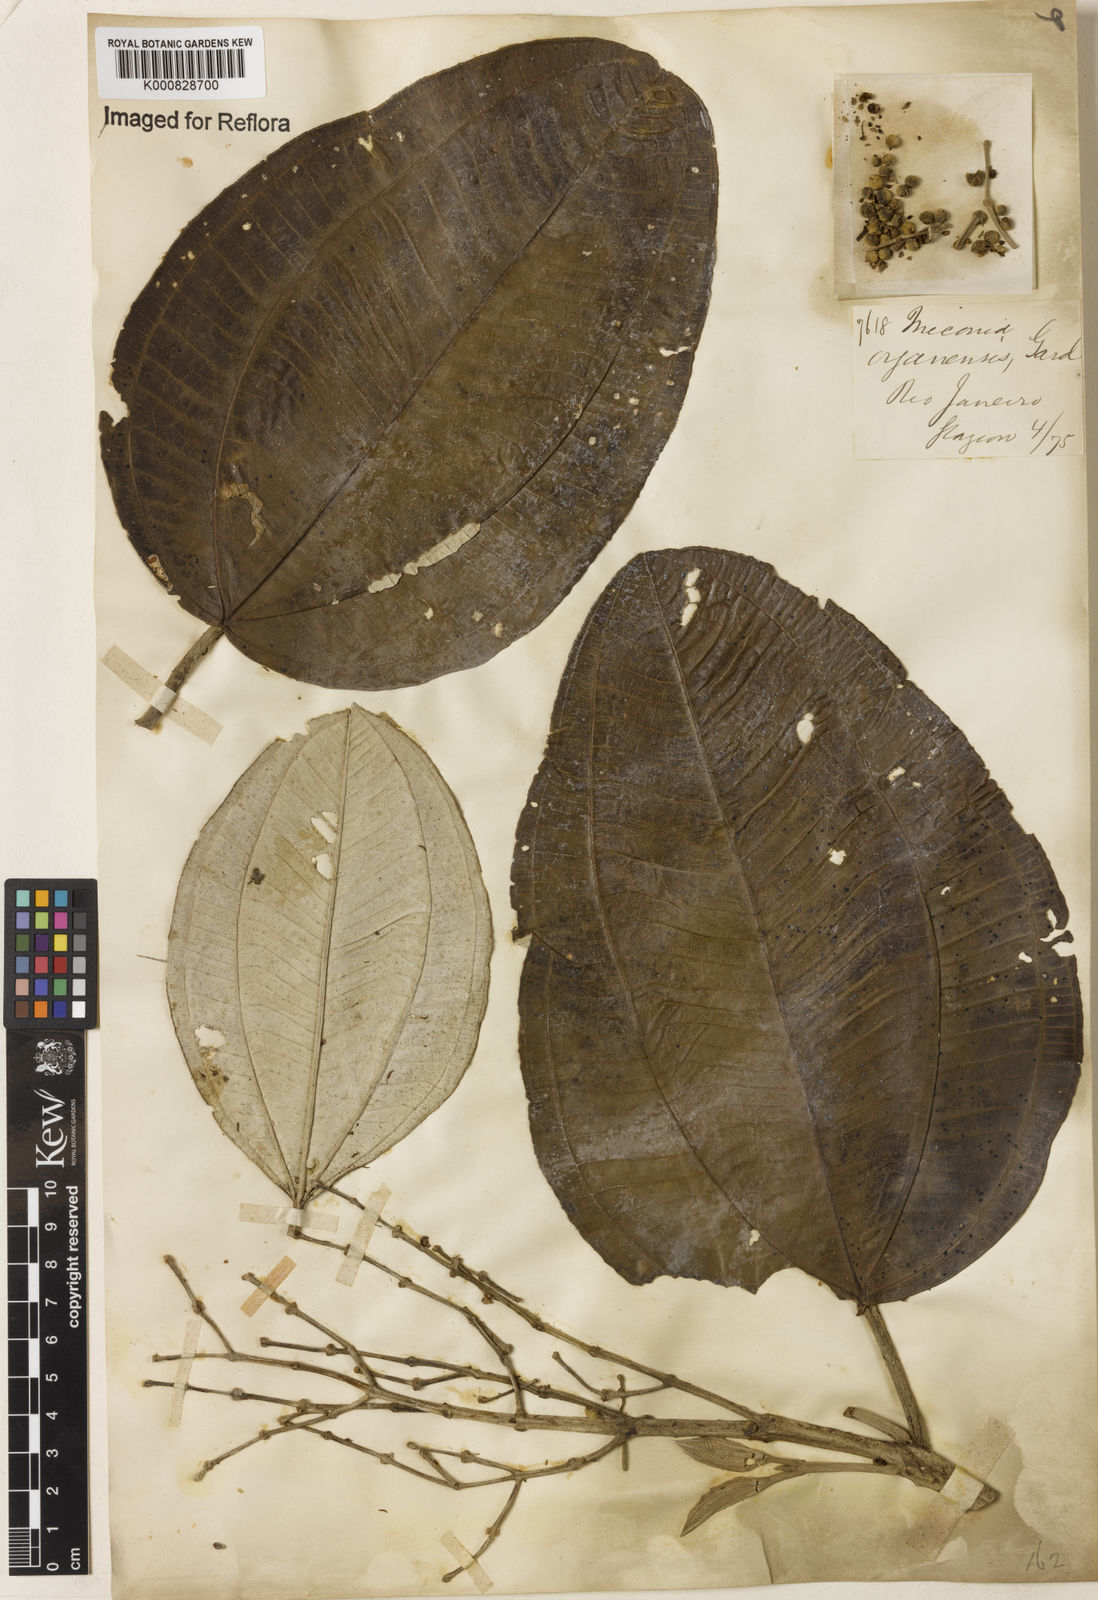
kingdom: Plantae
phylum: Tracheophyta
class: Magnoliopsida
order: Myrtales
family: Melastomataceae
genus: Miconia
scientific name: Miconia organensis
